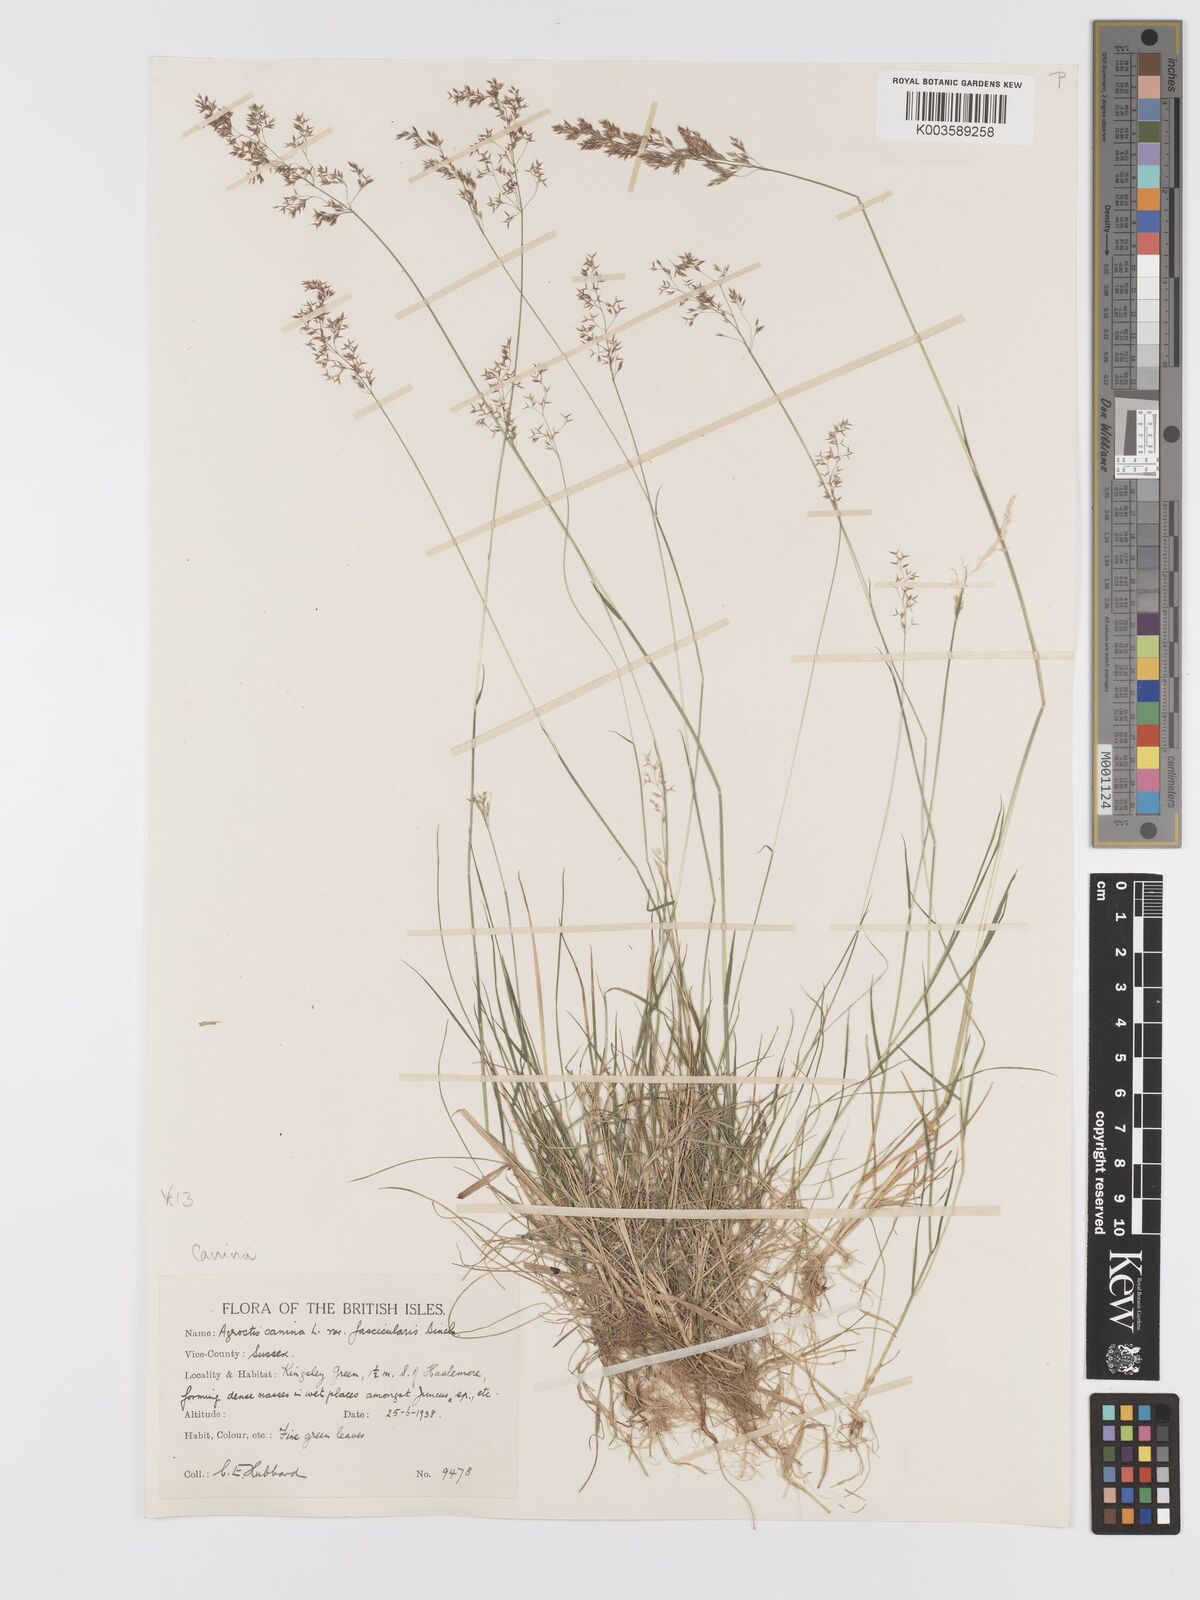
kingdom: Plantae
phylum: Tracheophyta
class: Liliopsida
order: Poales
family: Poaceae
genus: Agrostis
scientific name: Agrostis canina
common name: Velvet bent
